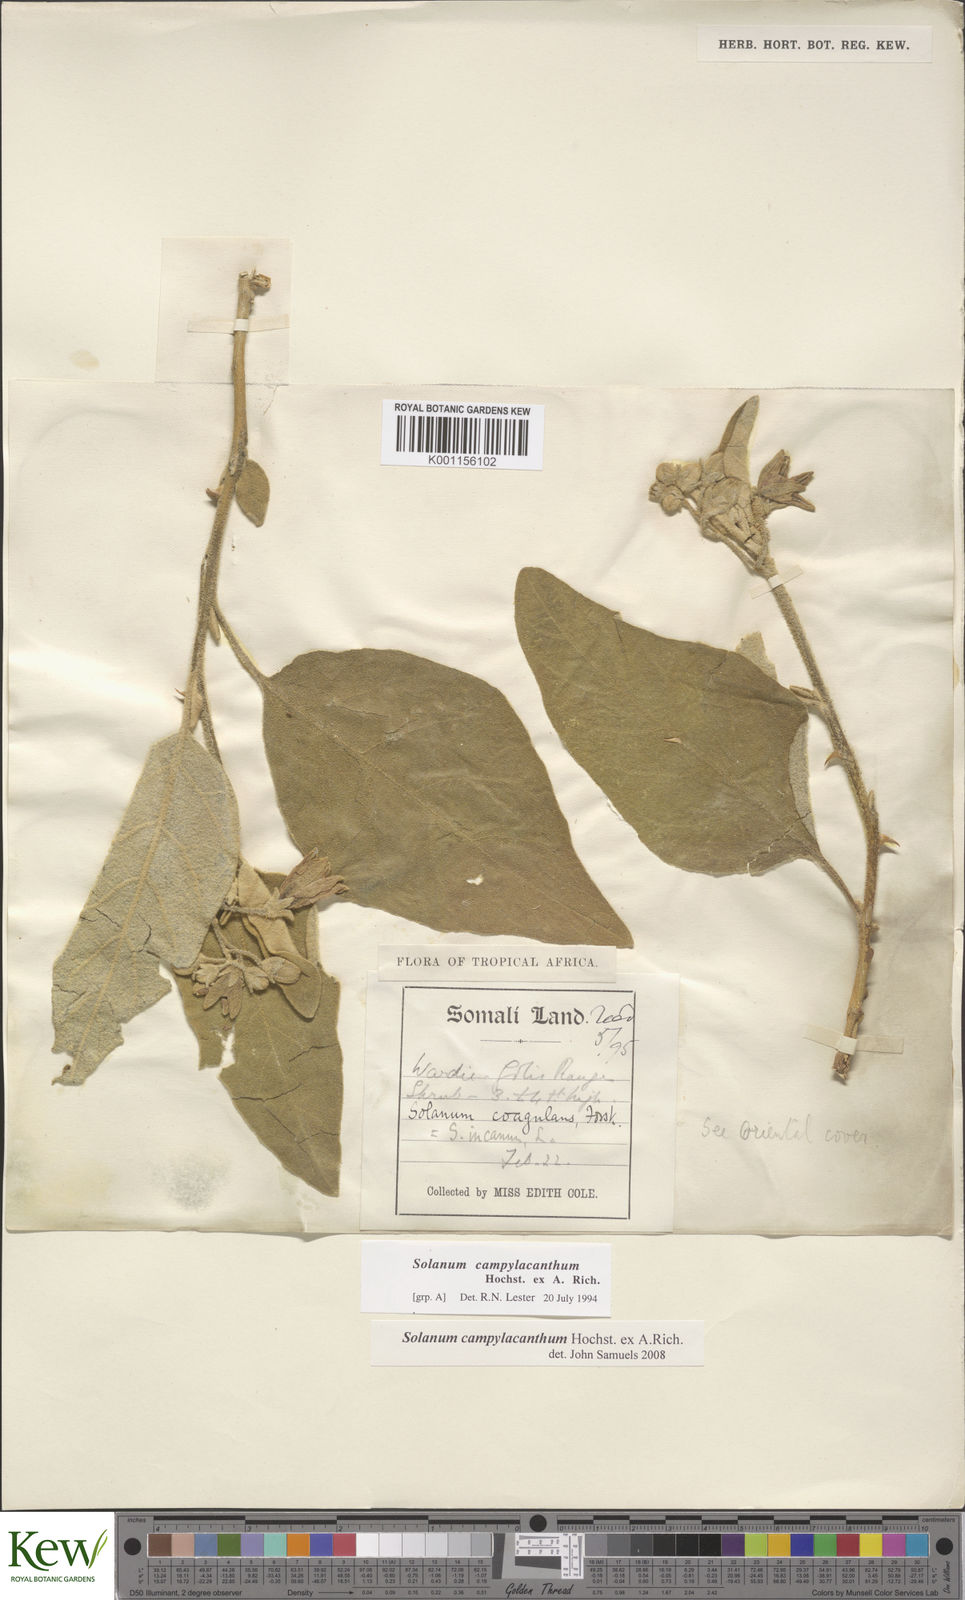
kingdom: Plantae
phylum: Tracheophyta
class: Magnoliopsida
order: Solanales
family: Solanaceae
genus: Solanum
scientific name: Solanum campylacanthum
